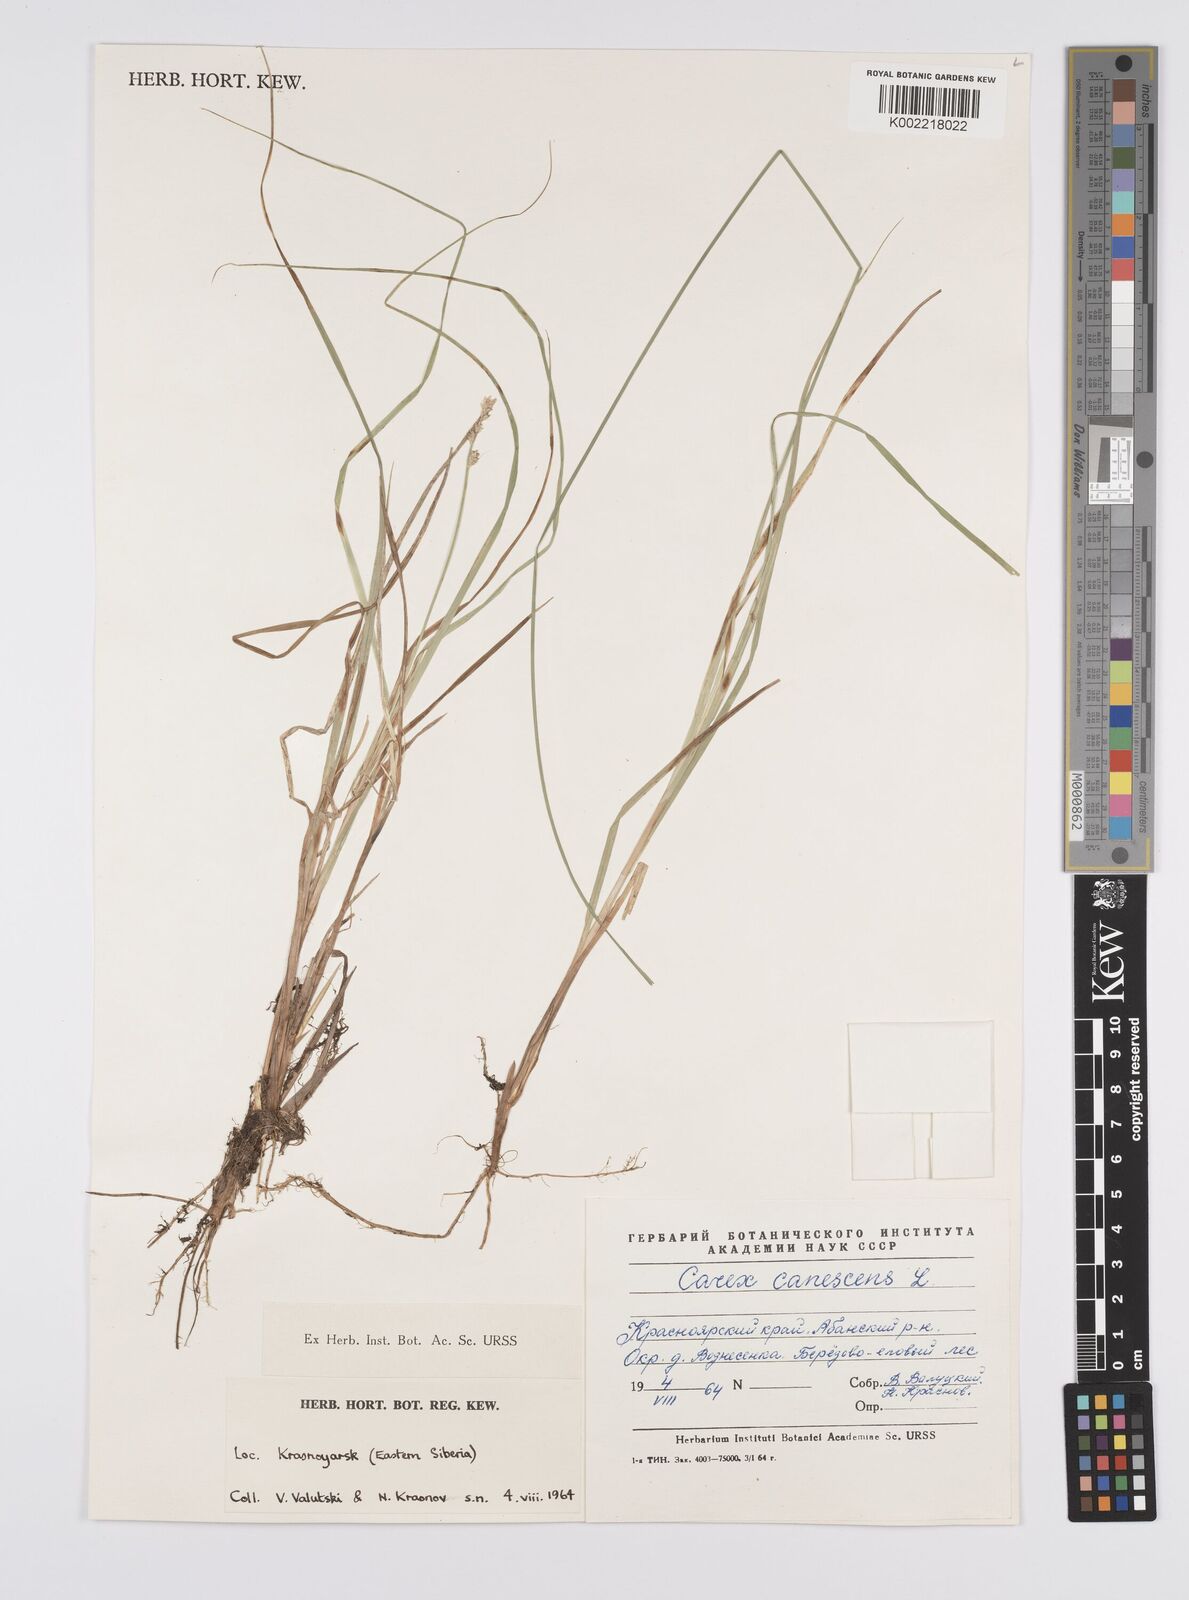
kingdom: Plantae
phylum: Tracheophyta
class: Liliopsida
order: Poales
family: Cyperaceae
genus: Carex
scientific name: Carex canescens
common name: White sedge
